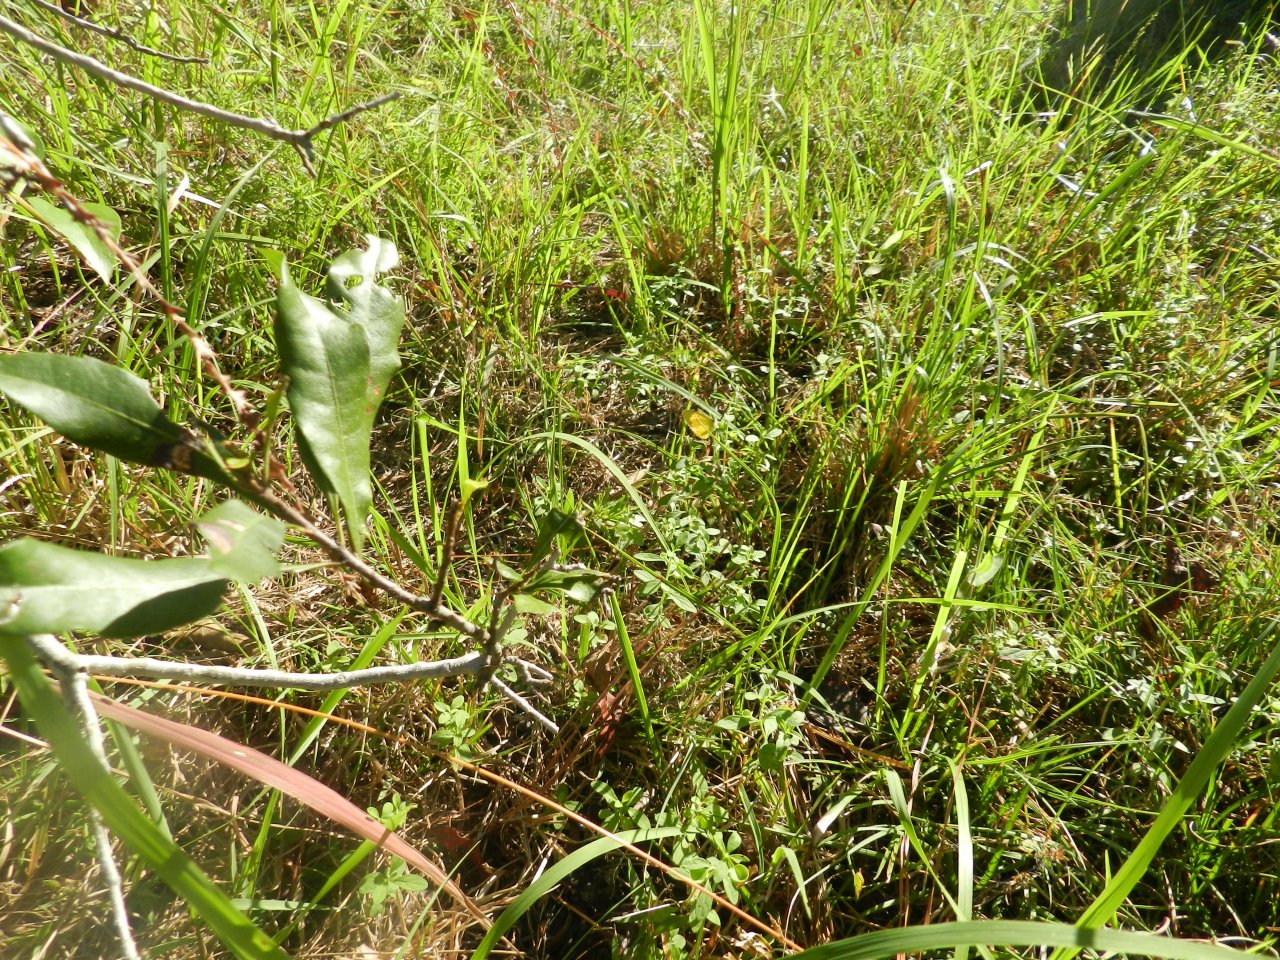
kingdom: Animalia
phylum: Arthropoda
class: Insecta
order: Lepidoptera
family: Pieridae
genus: Pyrisitia
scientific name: Pyrisitia lisa
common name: Little Yellow
